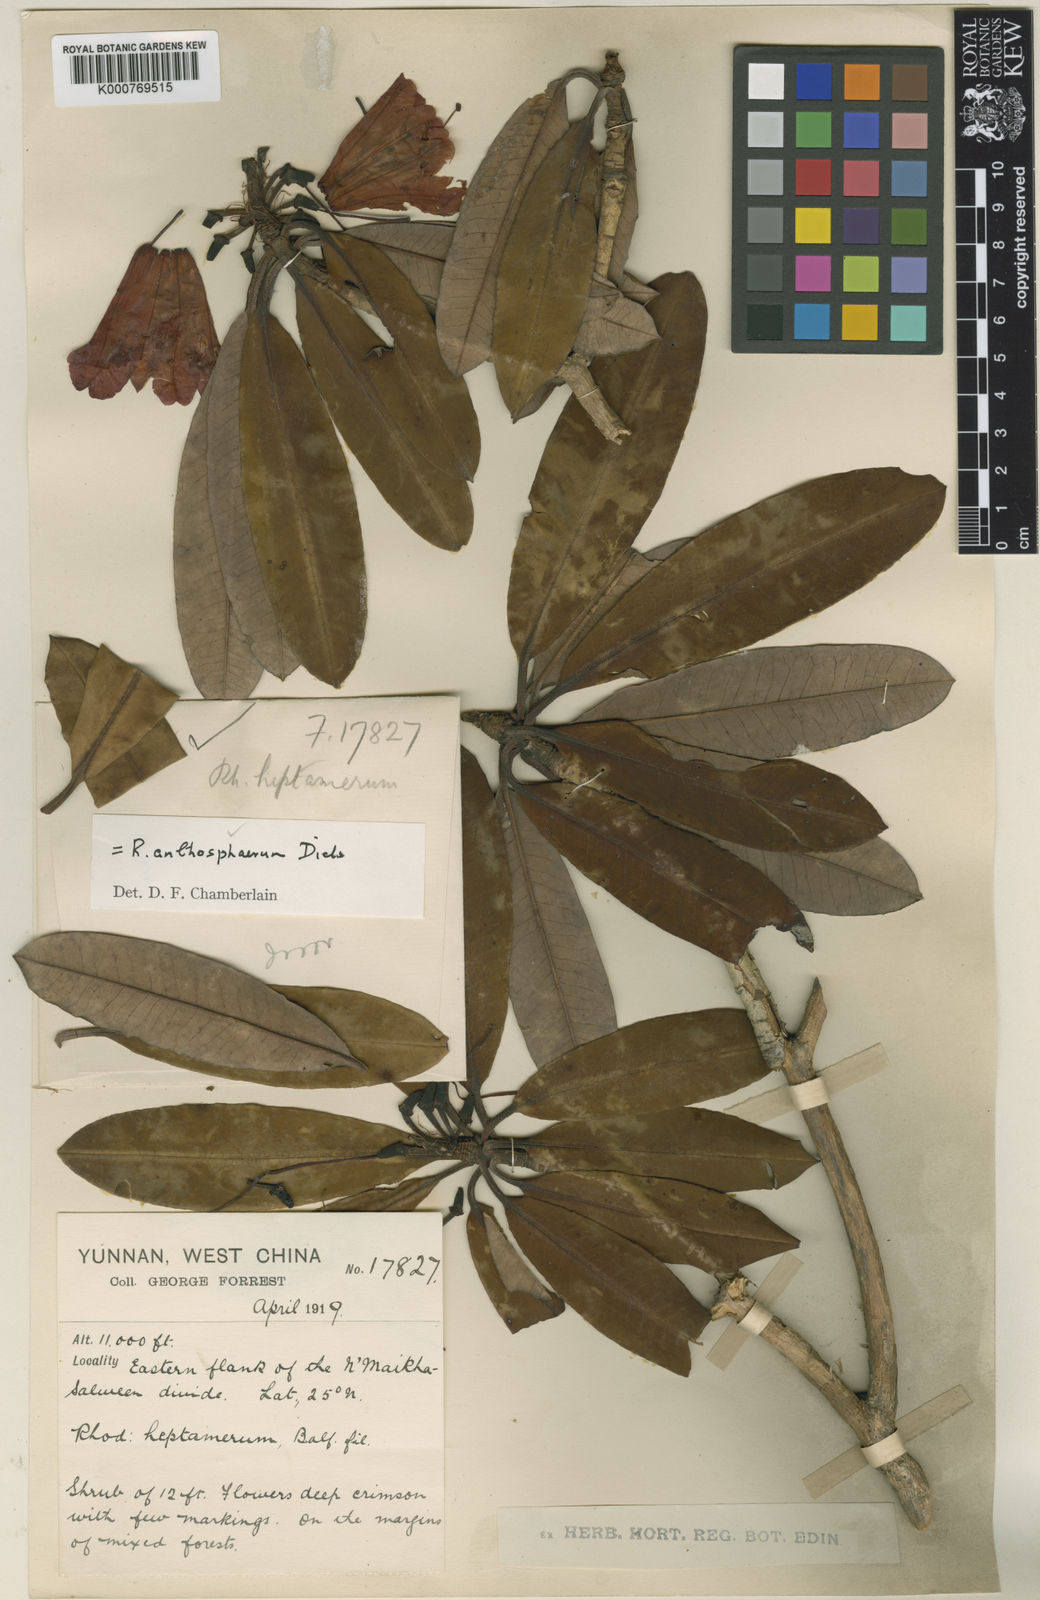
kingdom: Plantae
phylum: Tracheophyta
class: Magnoliopsida
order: Ericales
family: Ericaceae
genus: Rhododendron
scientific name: Rhododendron anthosphaerum
